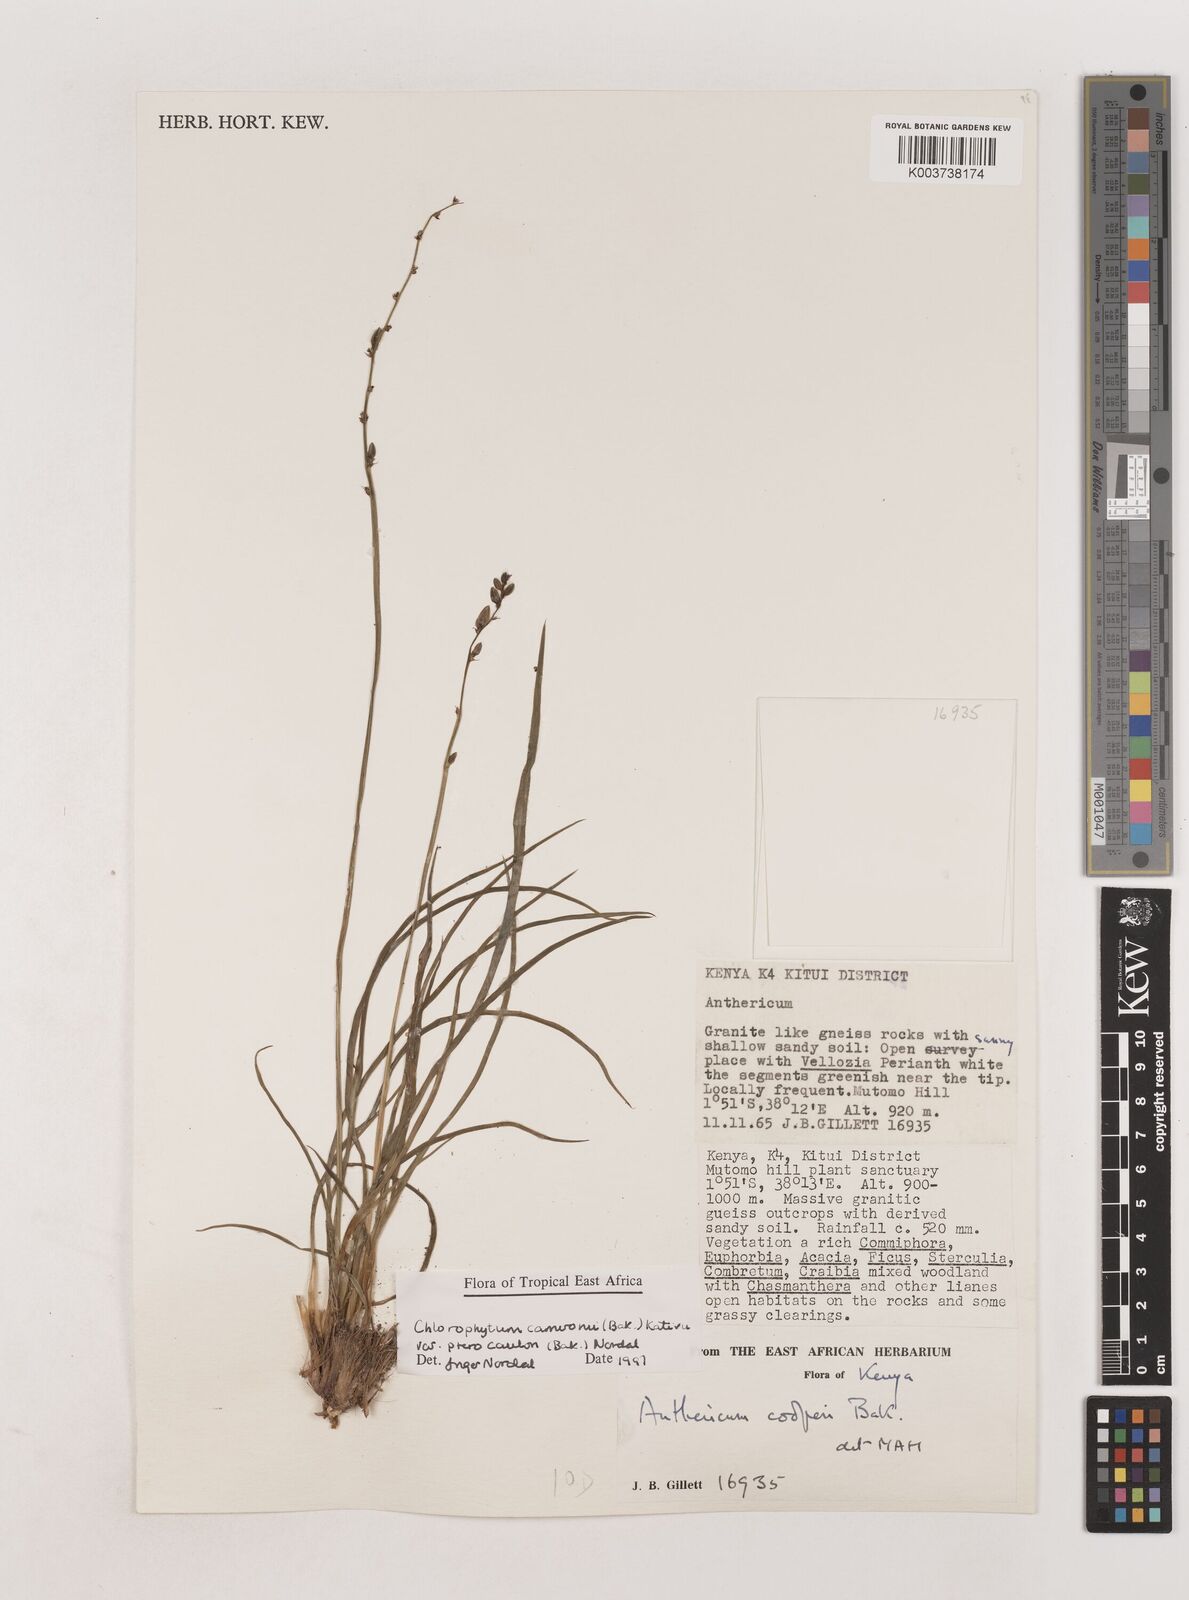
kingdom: Plantae
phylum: Tracheophyta
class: Liliopsida
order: Asparagales
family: Asparagaceae
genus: Chlorophytum
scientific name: Chlorophytum cameronii
